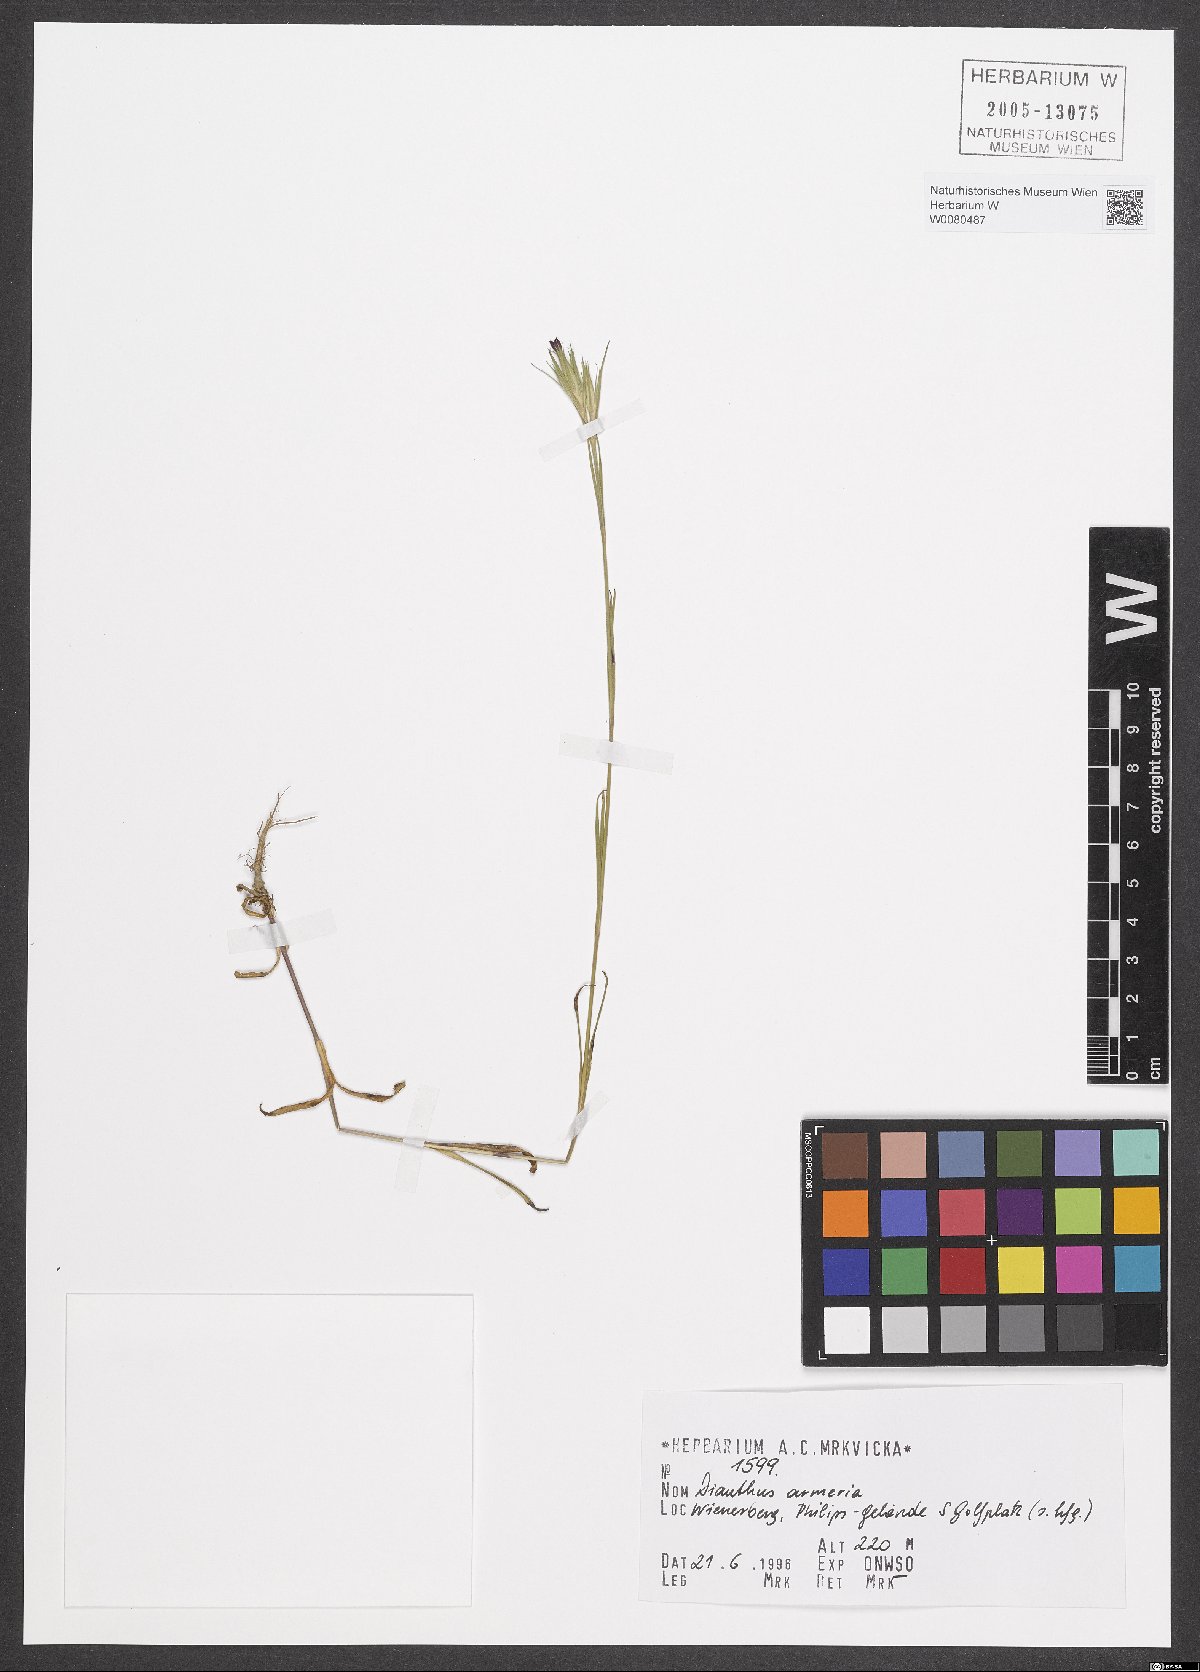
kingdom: Plantae
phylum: Tracheophyta
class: Magnoliopsida
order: Caryophyllales
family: Caryophyllaceae
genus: Dianthus
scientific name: Dianthus armeria
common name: Deptford pink
